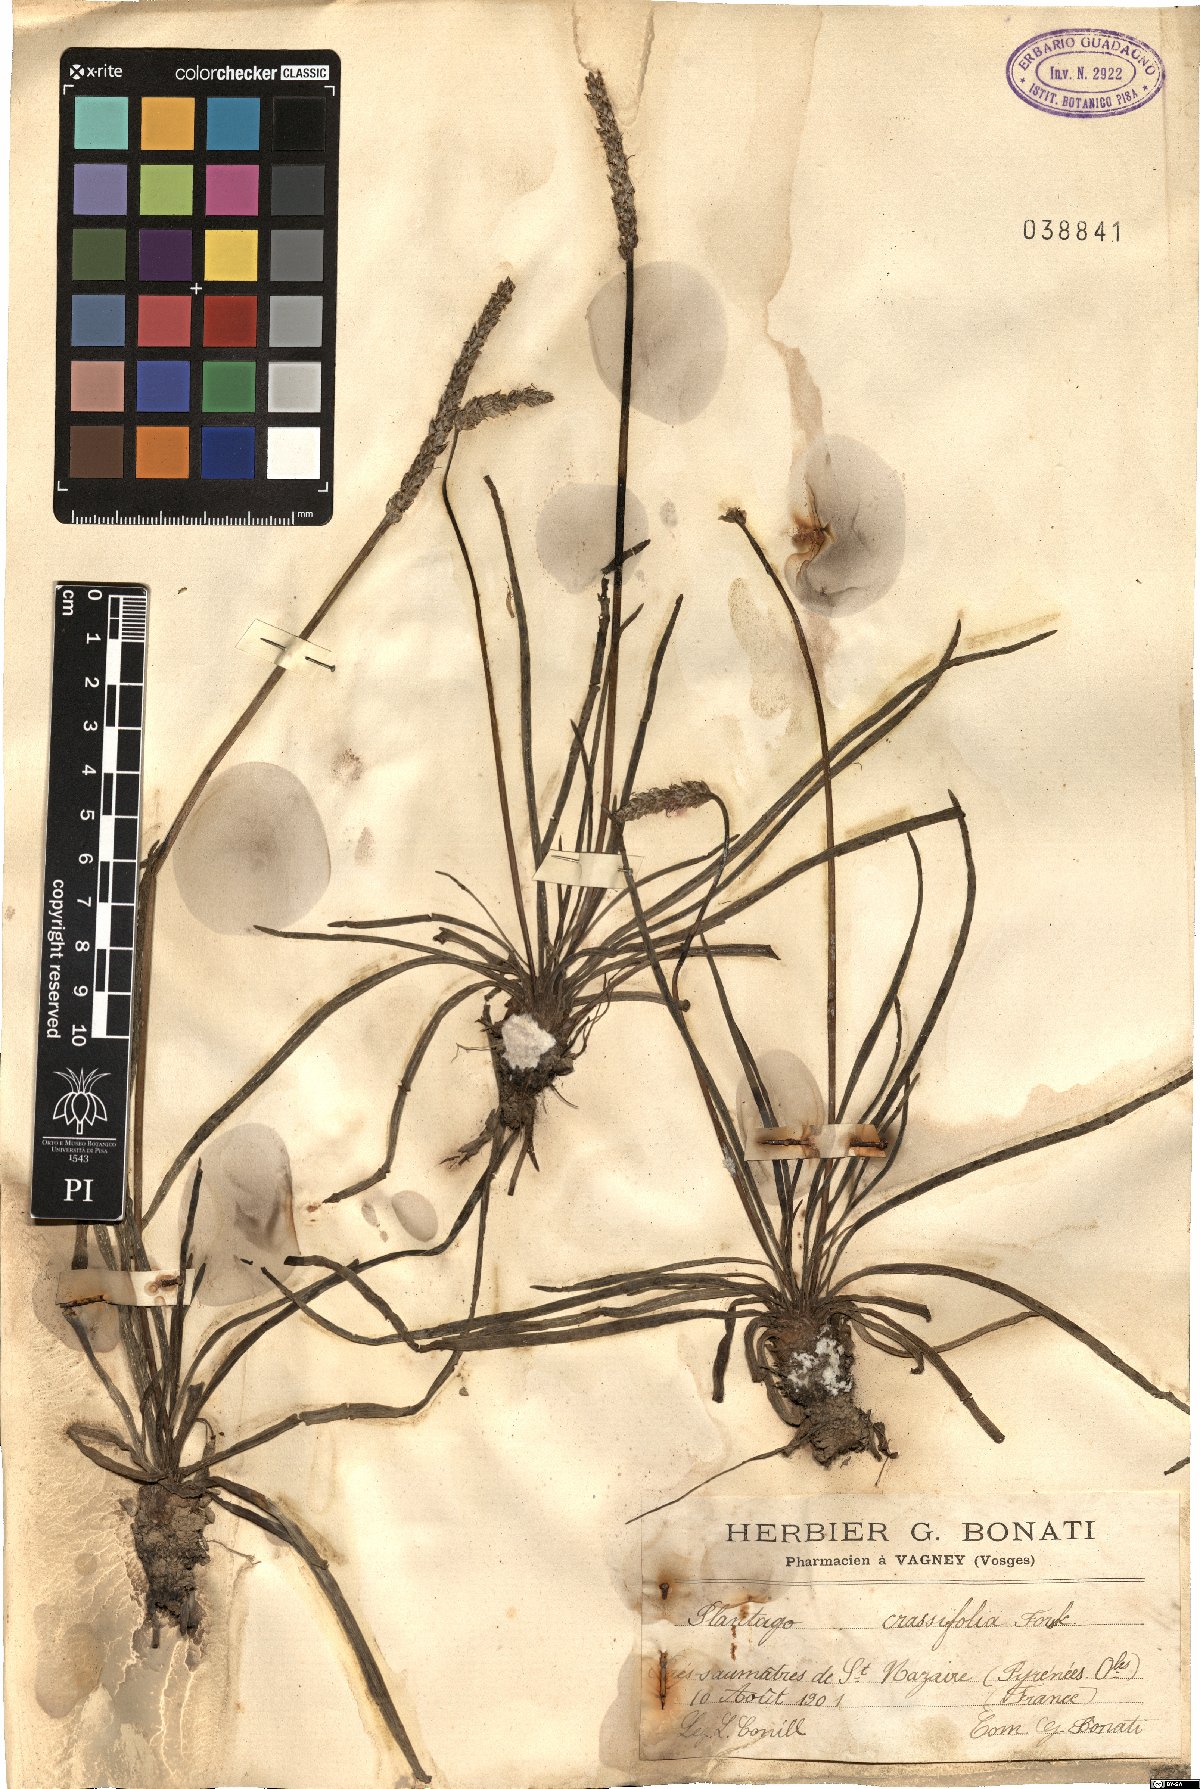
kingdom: Plantae
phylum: Tracheophyta
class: Magnoliopsida
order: Lamiales
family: Plantaginaceae
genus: Plantago
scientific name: Plantago crassifolia
